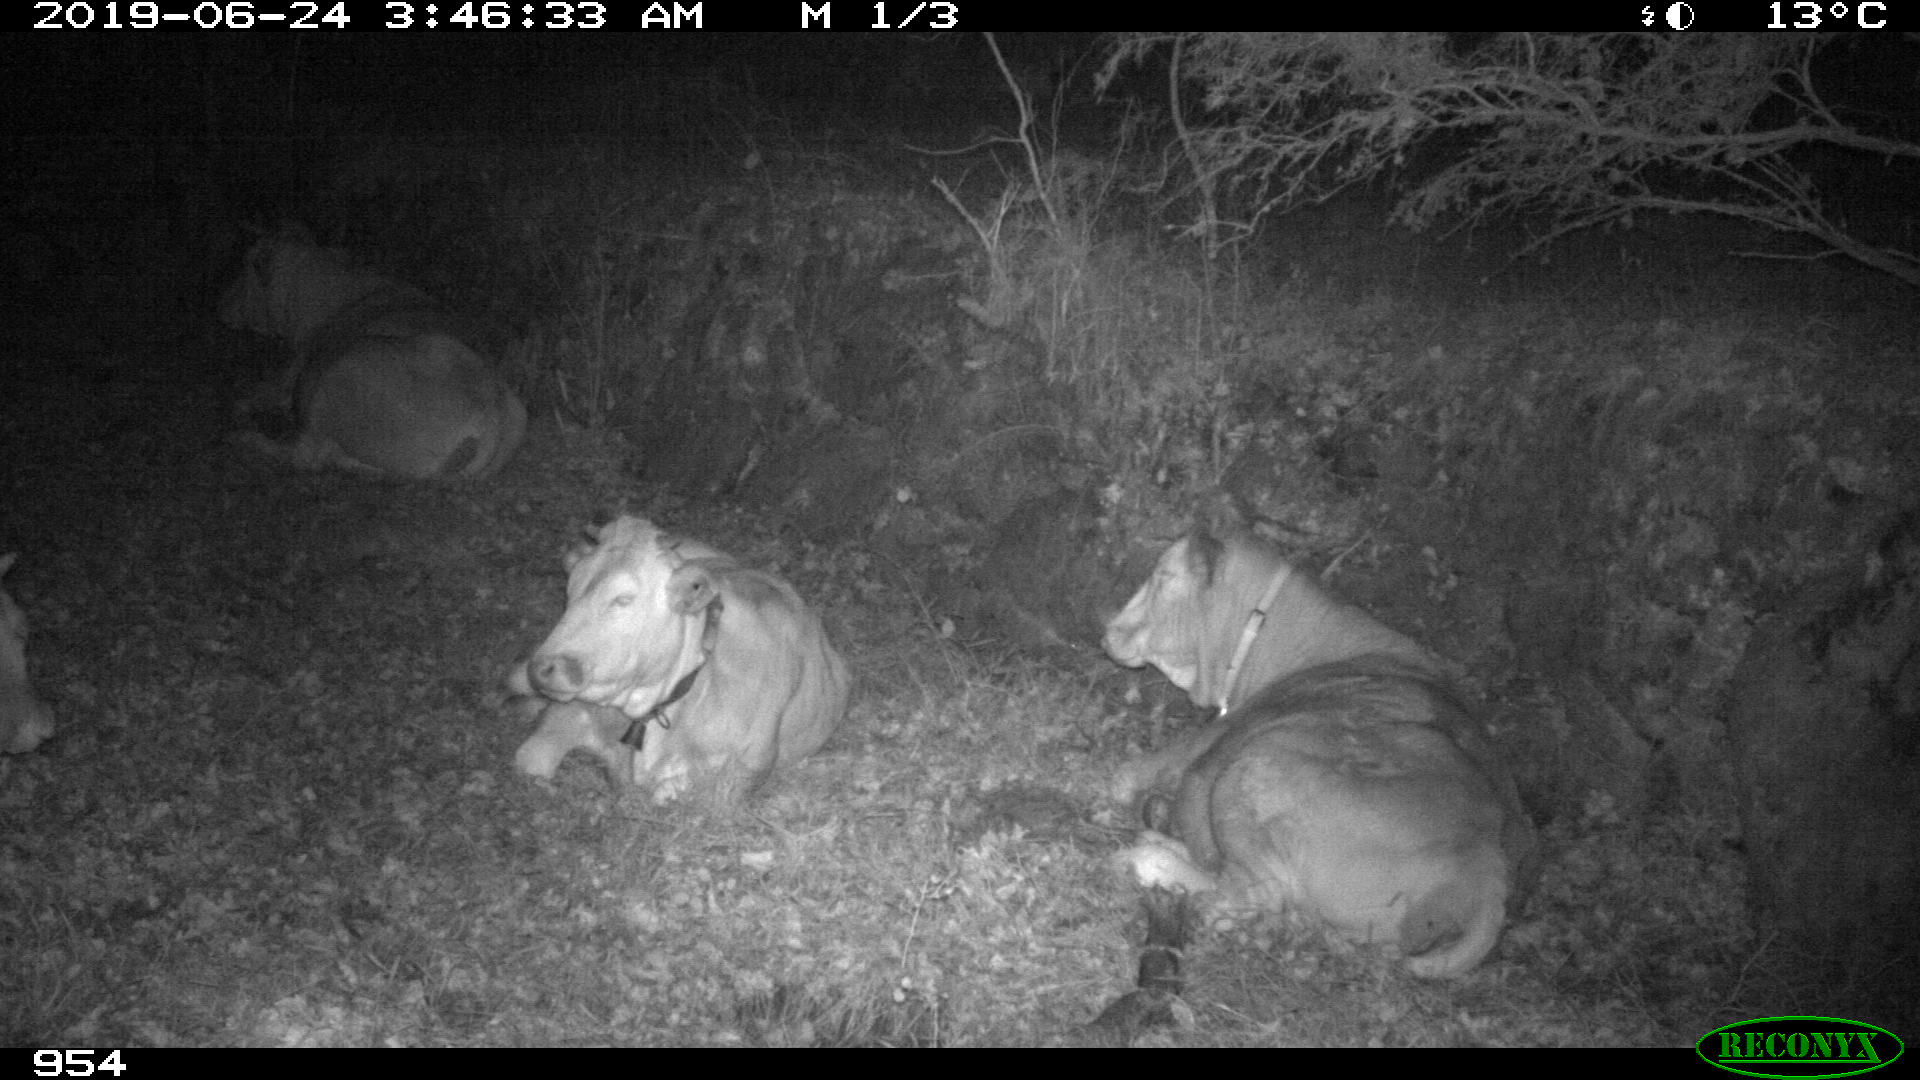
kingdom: Animalia
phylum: Chordata
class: Mammalia
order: Artiodactyla
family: Bovidae
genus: Bos
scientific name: Bos taurus
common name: Domesticated cattle
